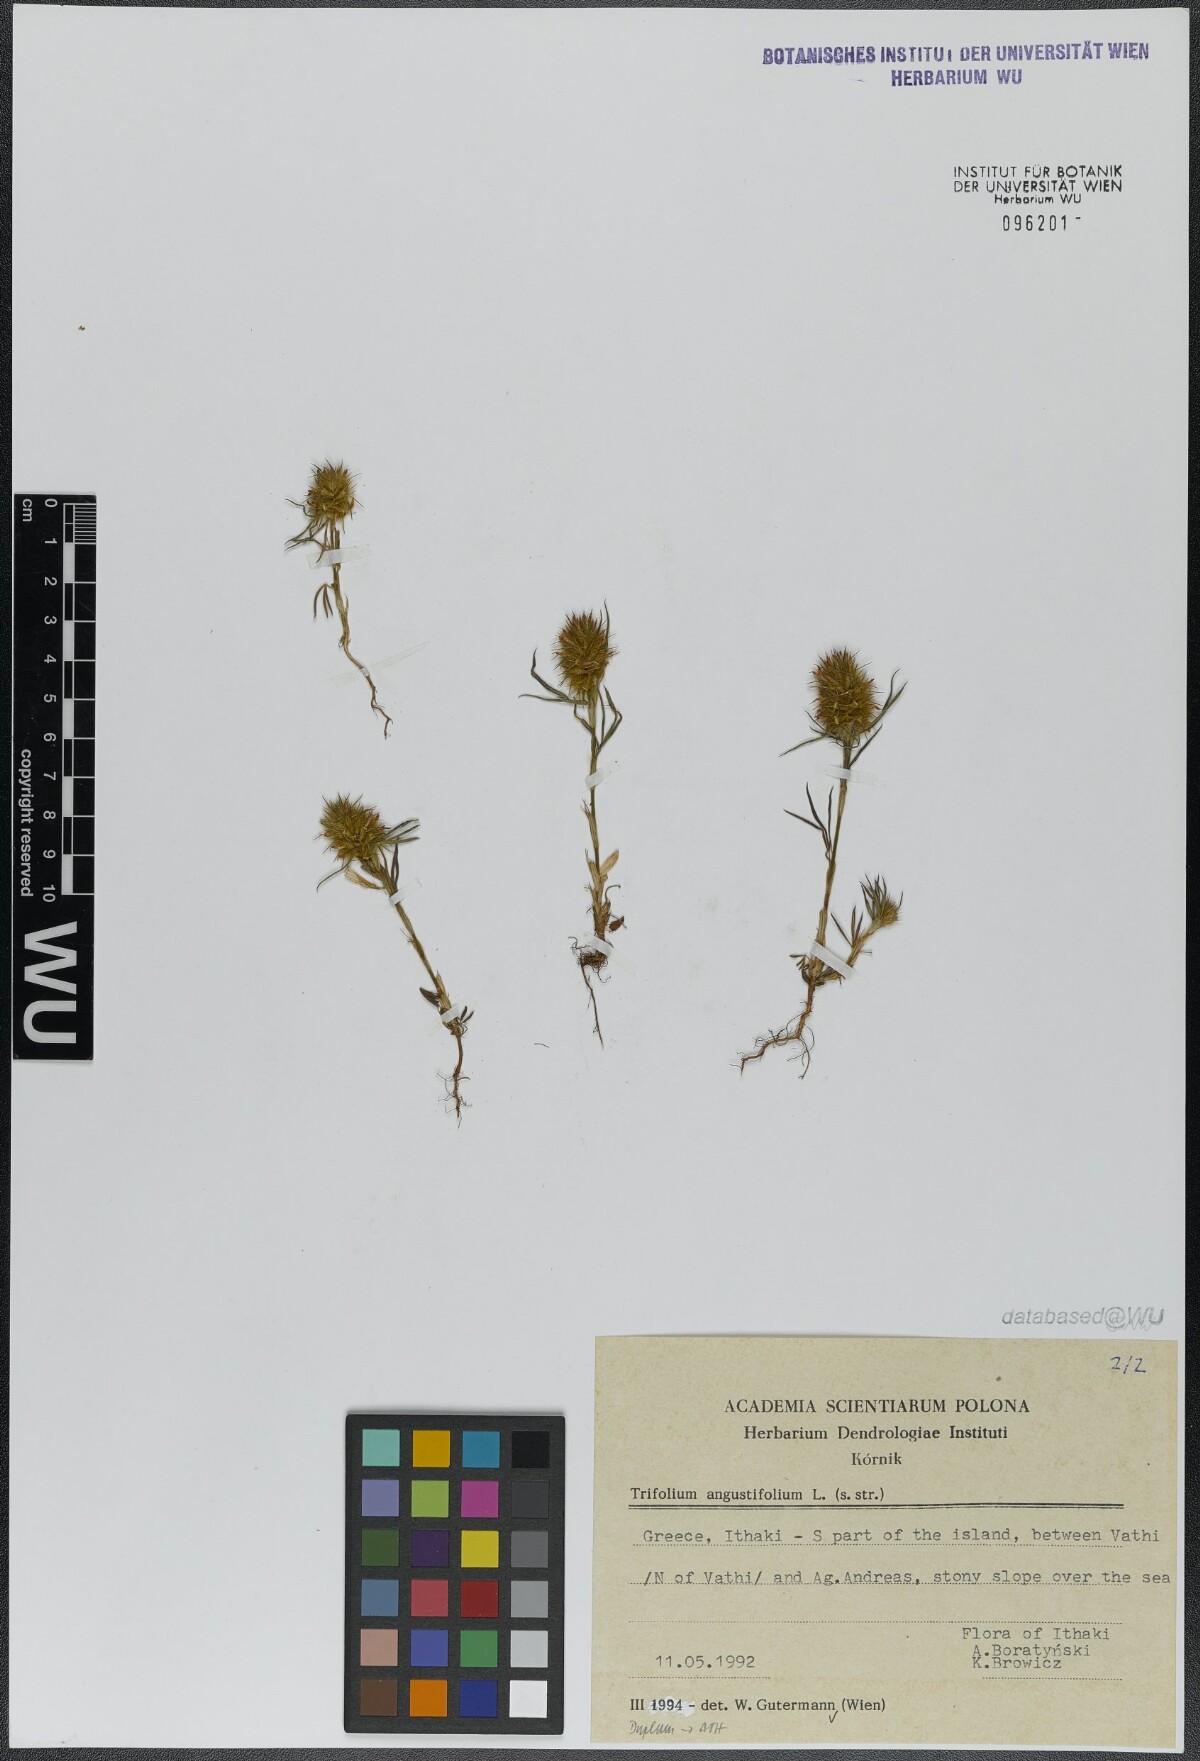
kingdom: Plantae
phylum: Tracheophyta
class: Magnoliopsida
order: Fabales
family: Fabaceae
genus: Trifolium
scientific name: Trifolium angustifolium
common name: Narrow clover
